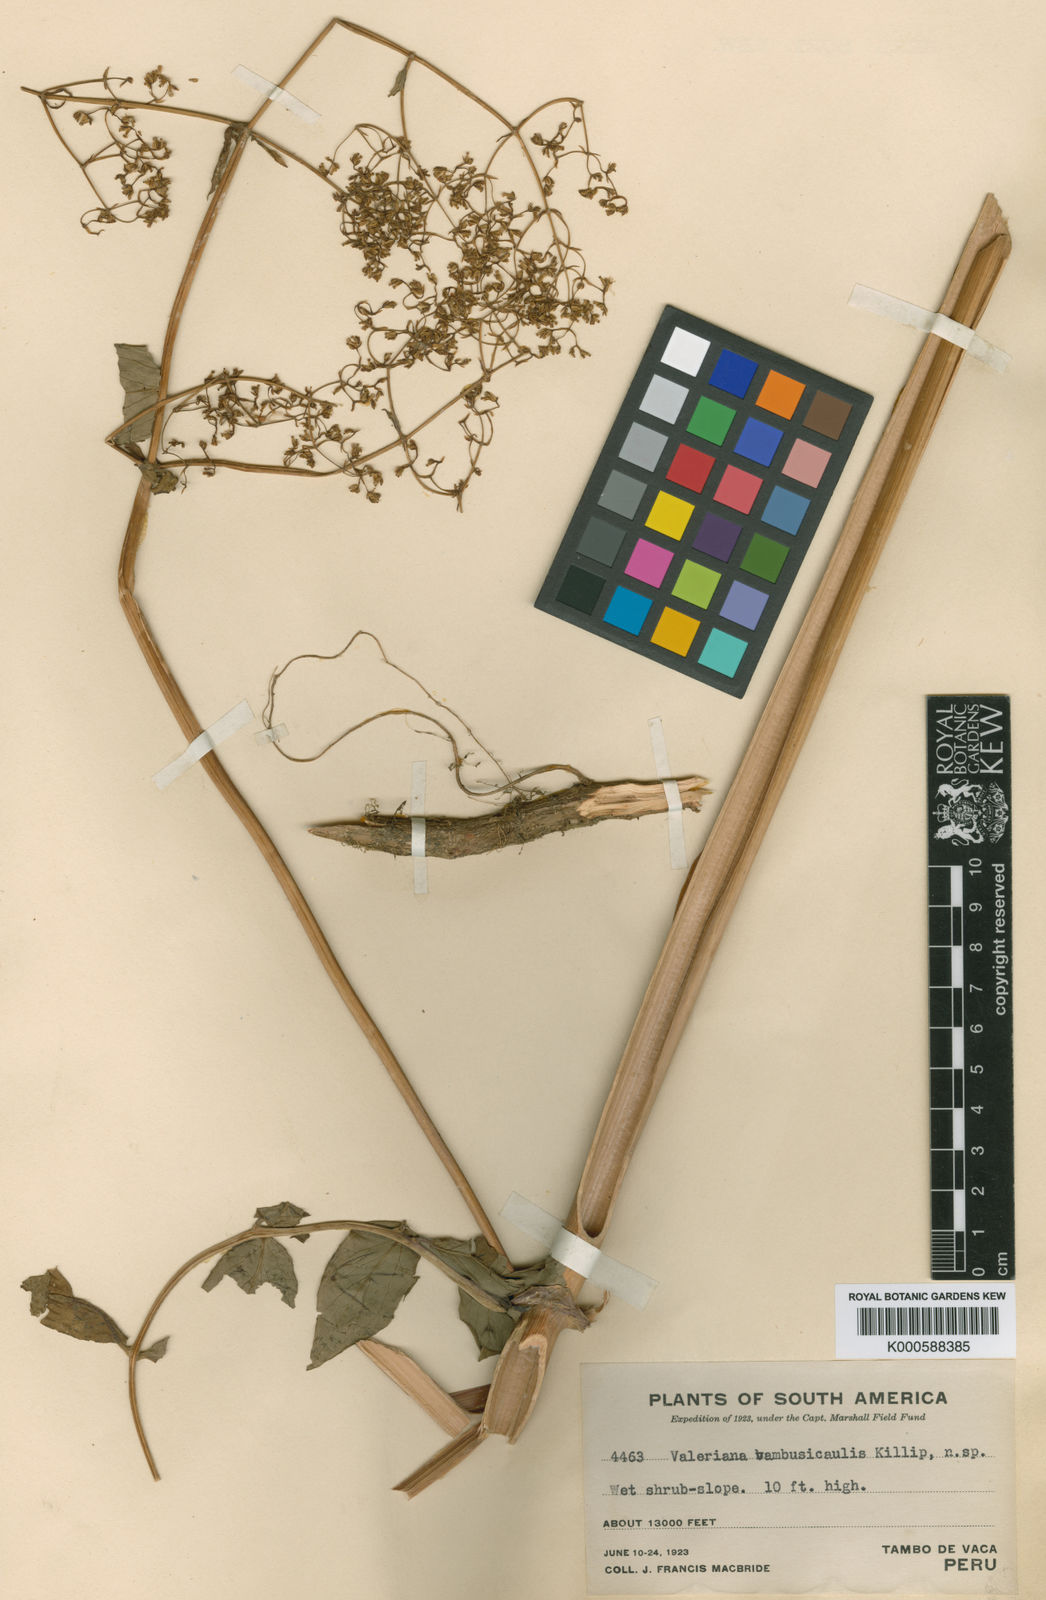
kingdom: Plantae
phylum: Tracheophyta
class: Magnoliopsida
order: Dipsacales
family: Caprifoliaceae
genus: Valeriana
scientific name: Valeriana bambusicaulis
